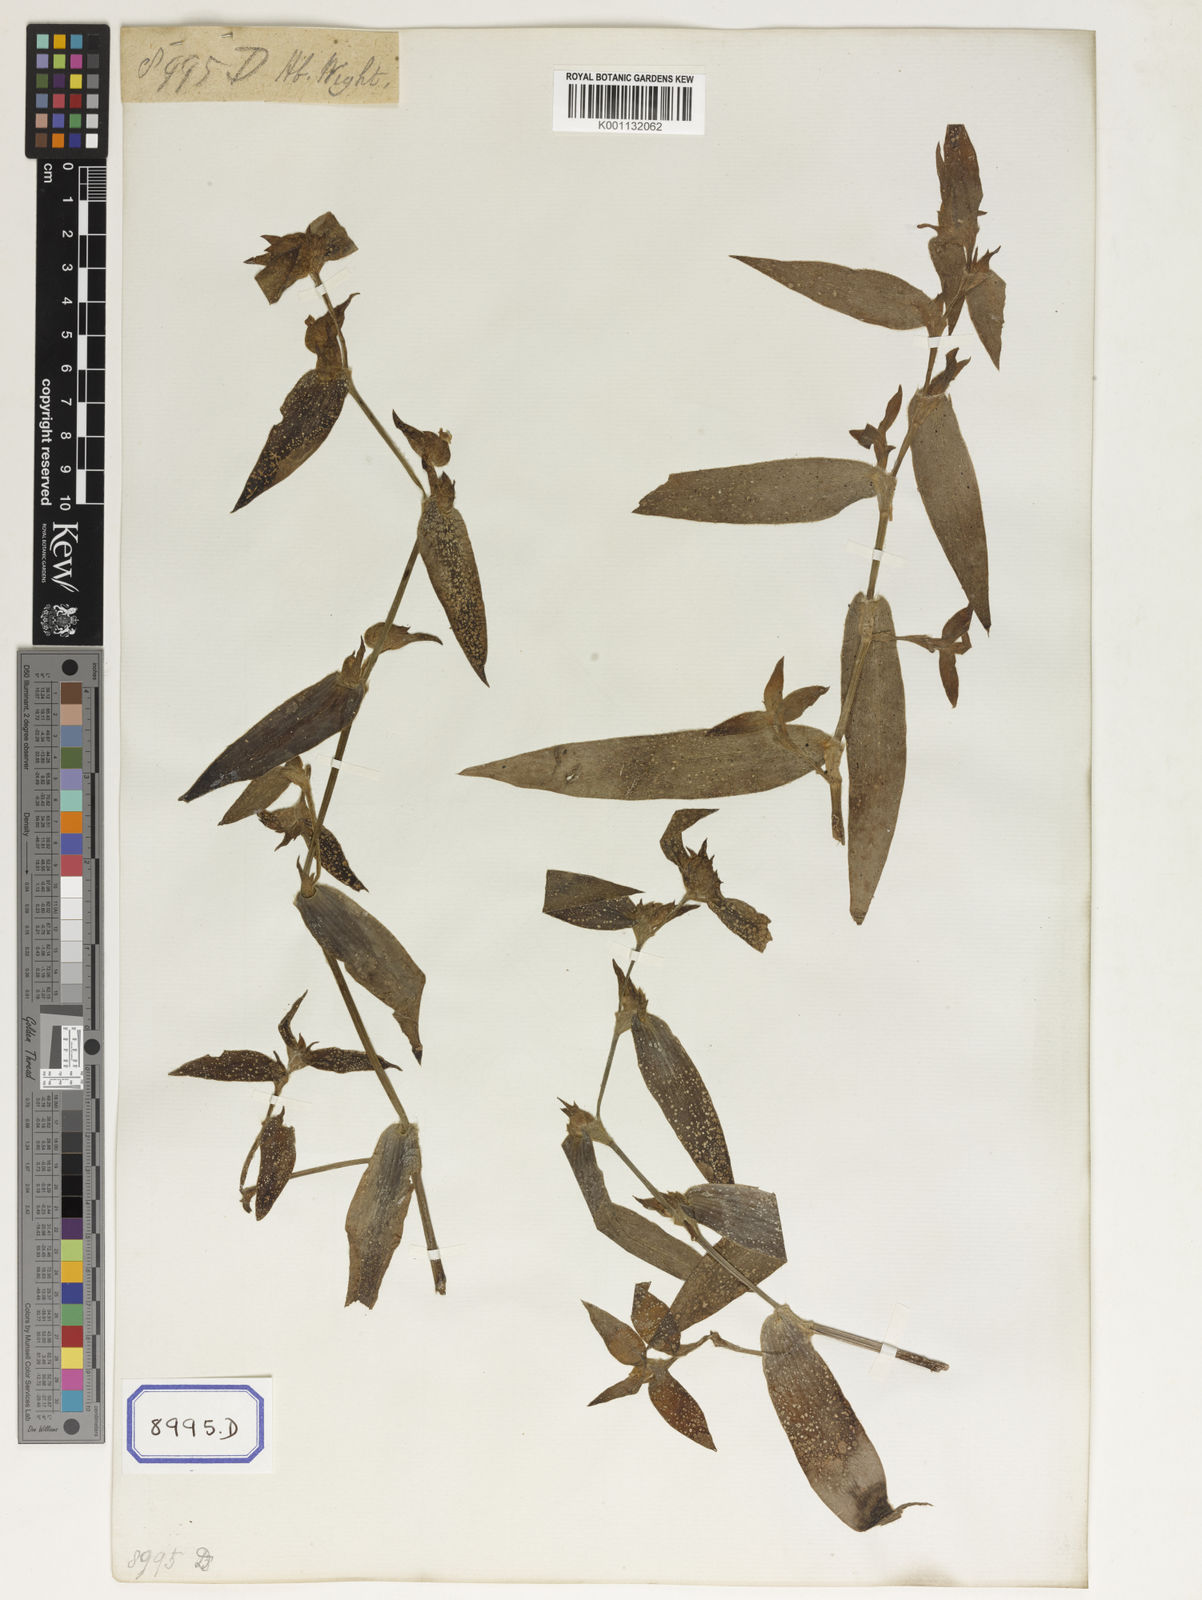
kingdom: Plantae
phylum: Tracheophyta
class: Liliopsida
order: Commelinales
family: Commelinaceae
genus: Cyanotis
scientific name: Cyanotis villosa
